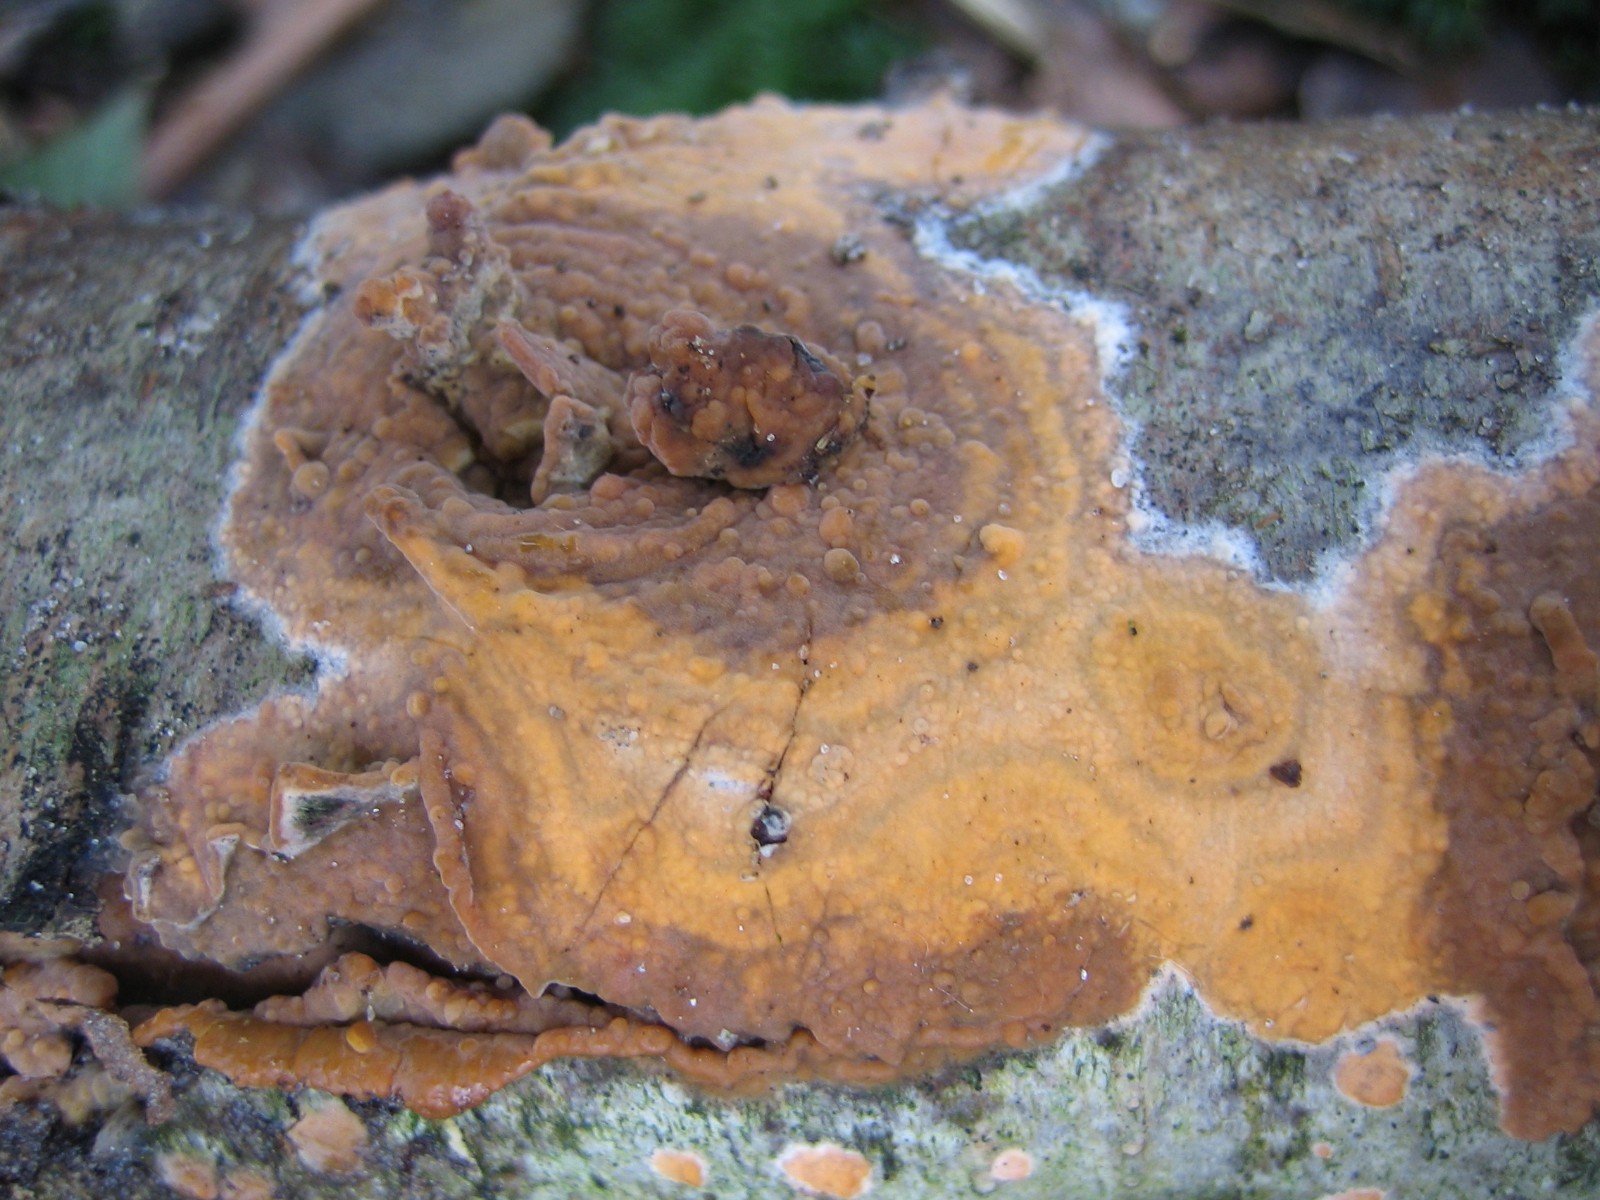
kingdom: Fungi
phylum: Basidiomycota
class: Agaricomycetes
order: Russulales
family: Peniophoraceae
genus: Peniophora
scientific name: Peniophora incarnata
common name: laksefarvet voksskind
